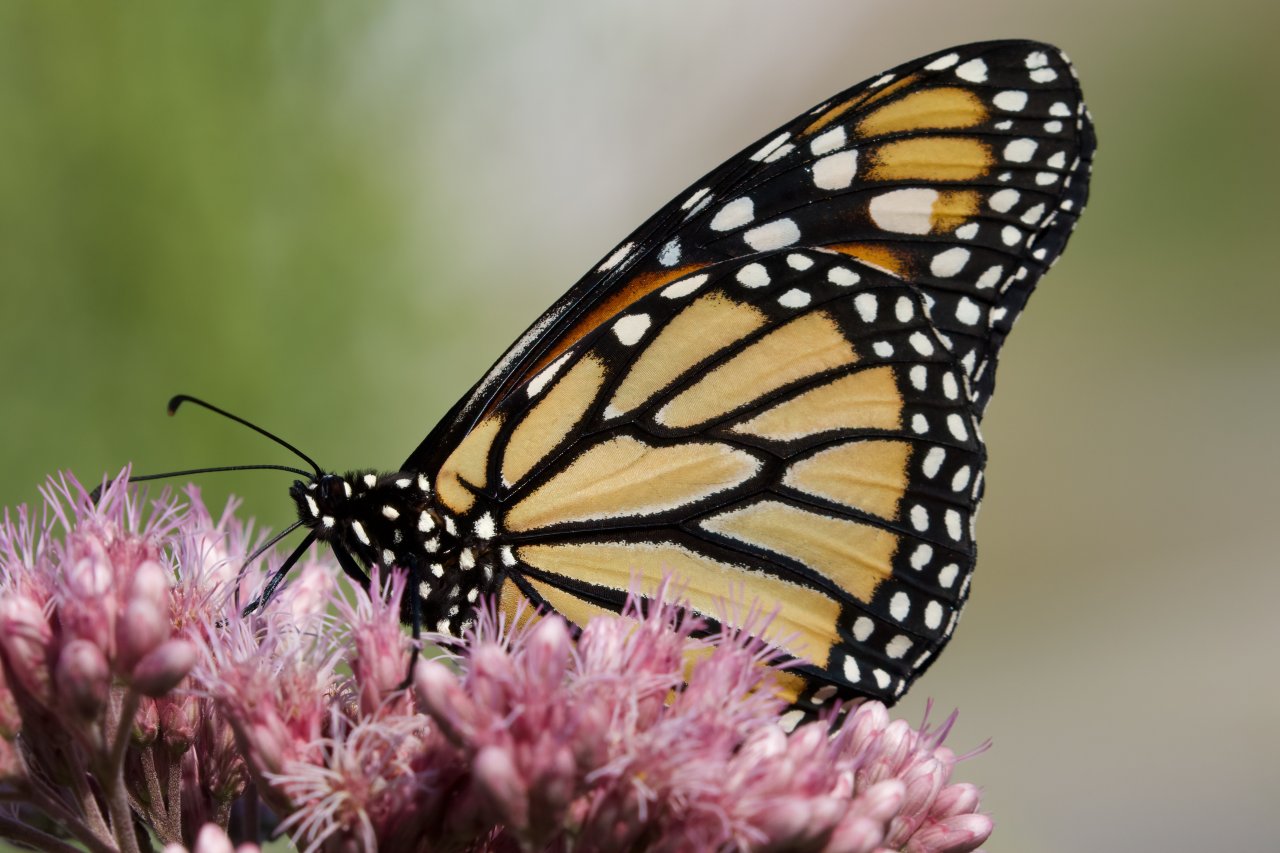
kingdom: Animalia
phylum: Arthropoda
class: Insecta
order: Lepidoptera
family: Nymphalidae
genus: Danaus
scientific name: Danaus plexippus
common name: Monarch
